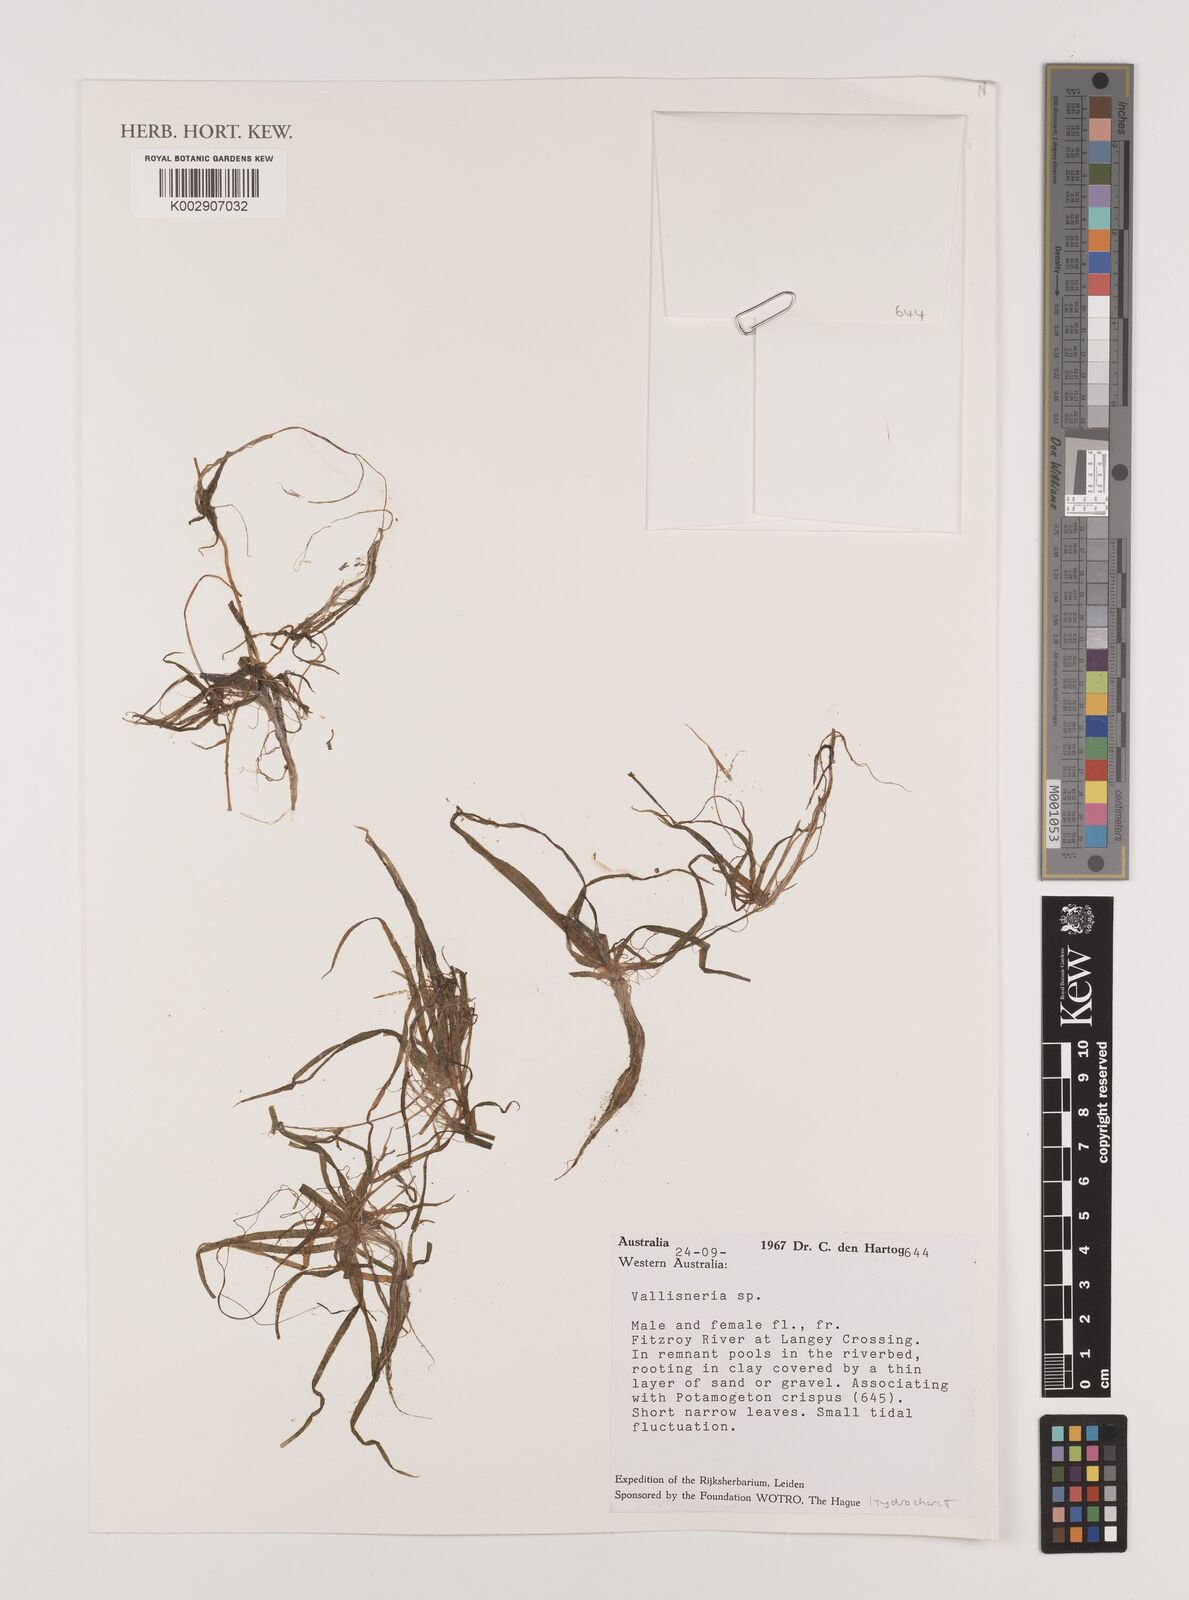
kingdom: Plantae
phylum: Tracheophyta
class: Liliopsida
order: Alismatales
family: Hydrocharitaceae
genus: Vallisneria
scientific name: Vallisneria
